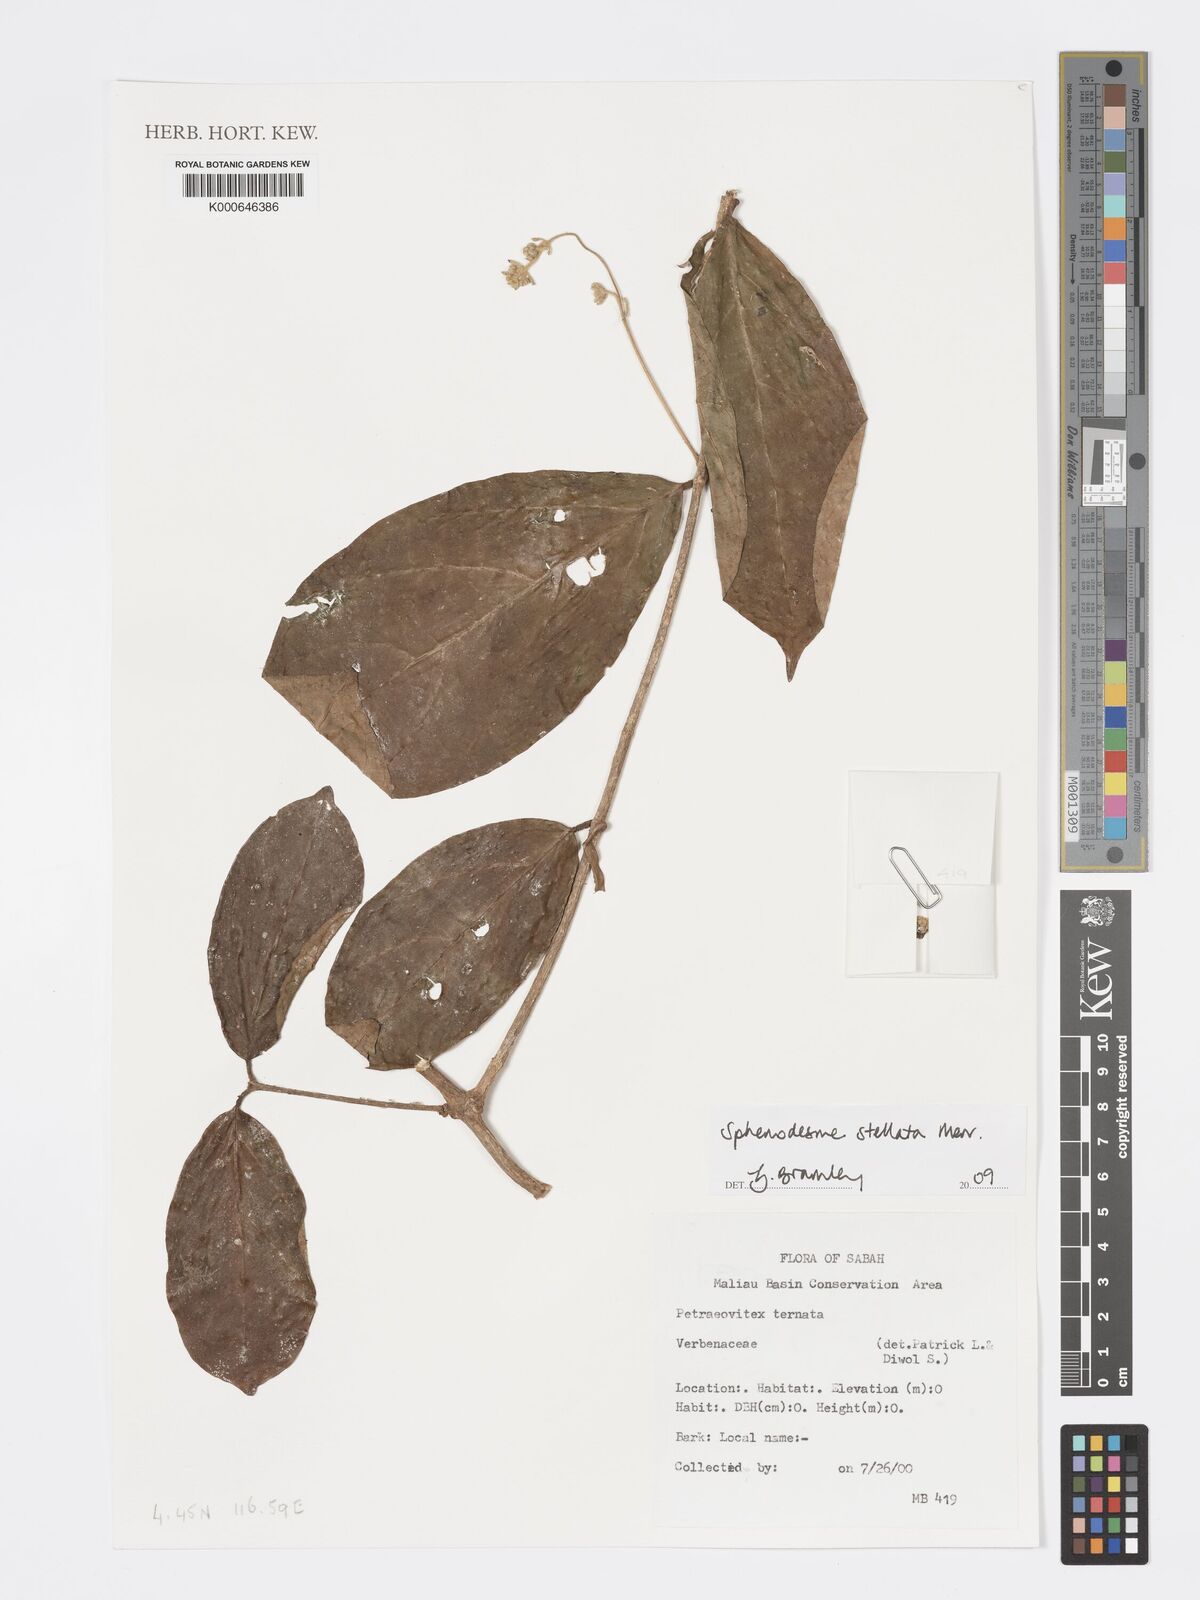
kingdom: Plantae
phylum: Tracheophyta
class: Magnoliopsida
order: Lamiales
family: Lamiaceae
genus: Sphenodesme
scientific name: Sphenodesme stellata
